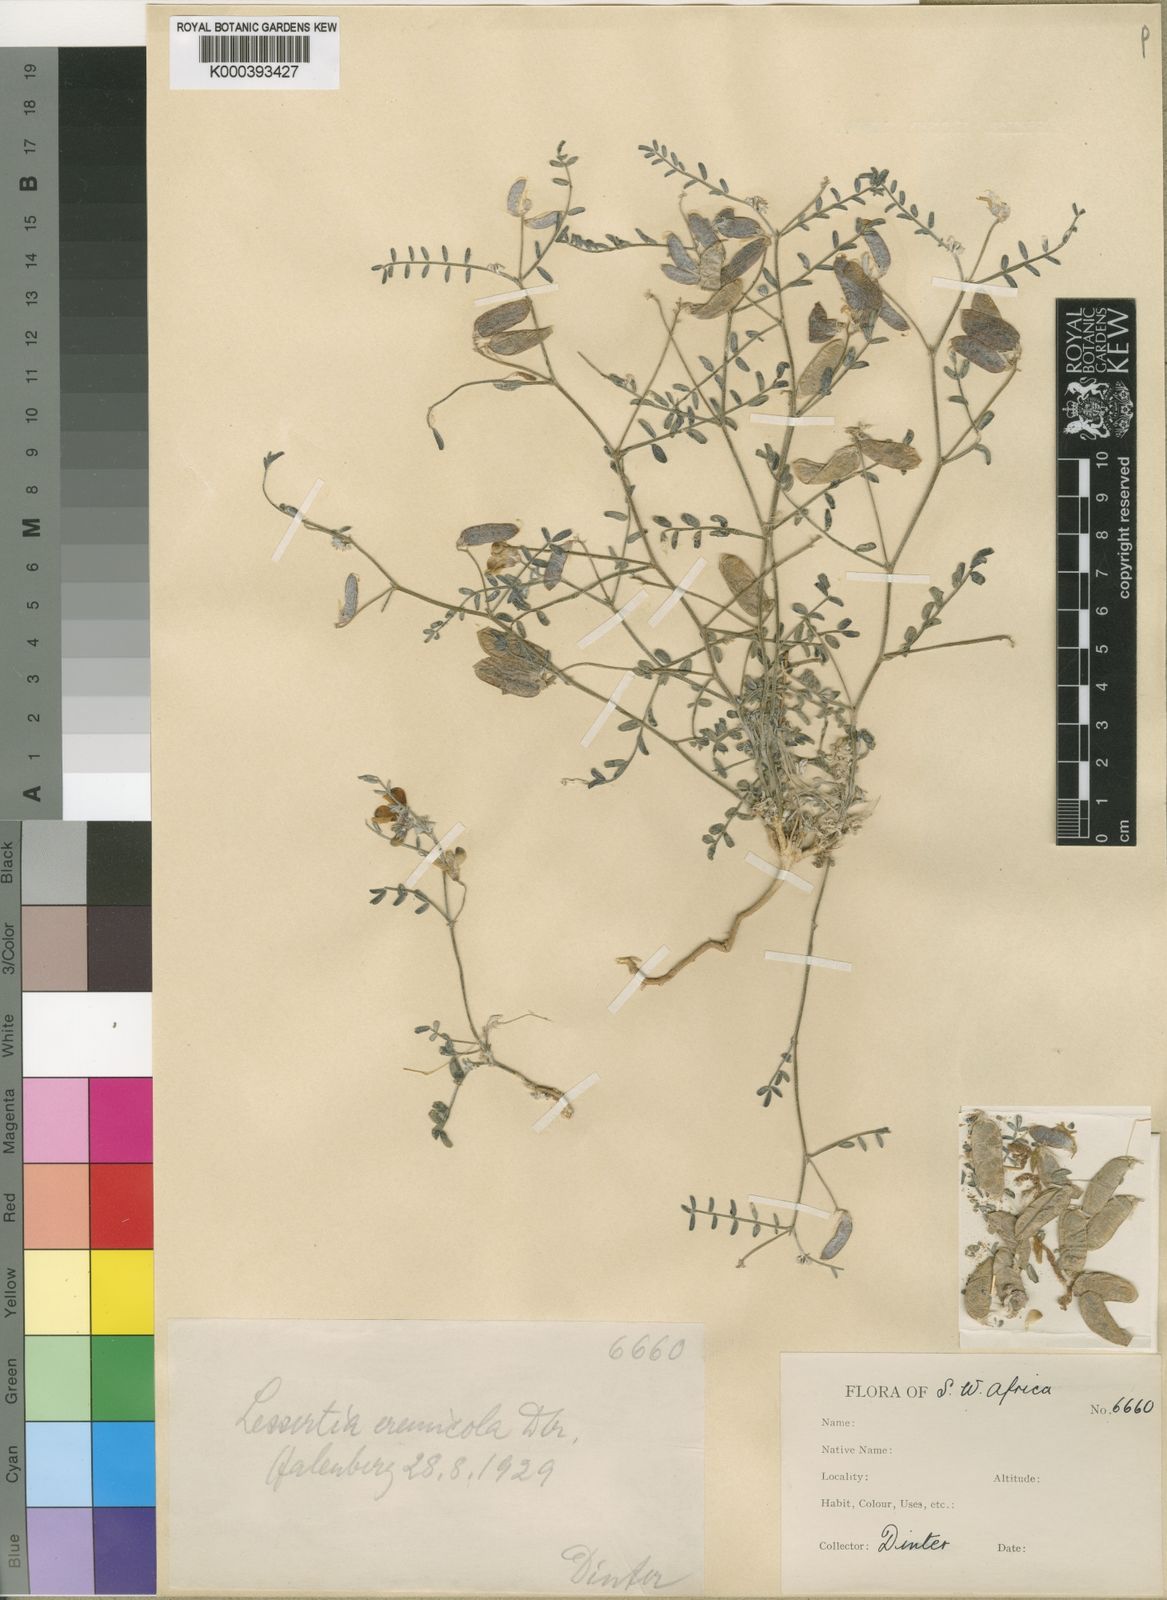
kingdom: Plantae
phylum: Tracheophyta
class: Magnoliopsida
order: Fabales
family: Fabaceae
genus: Lessertia
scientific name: Lessertia eremicola
